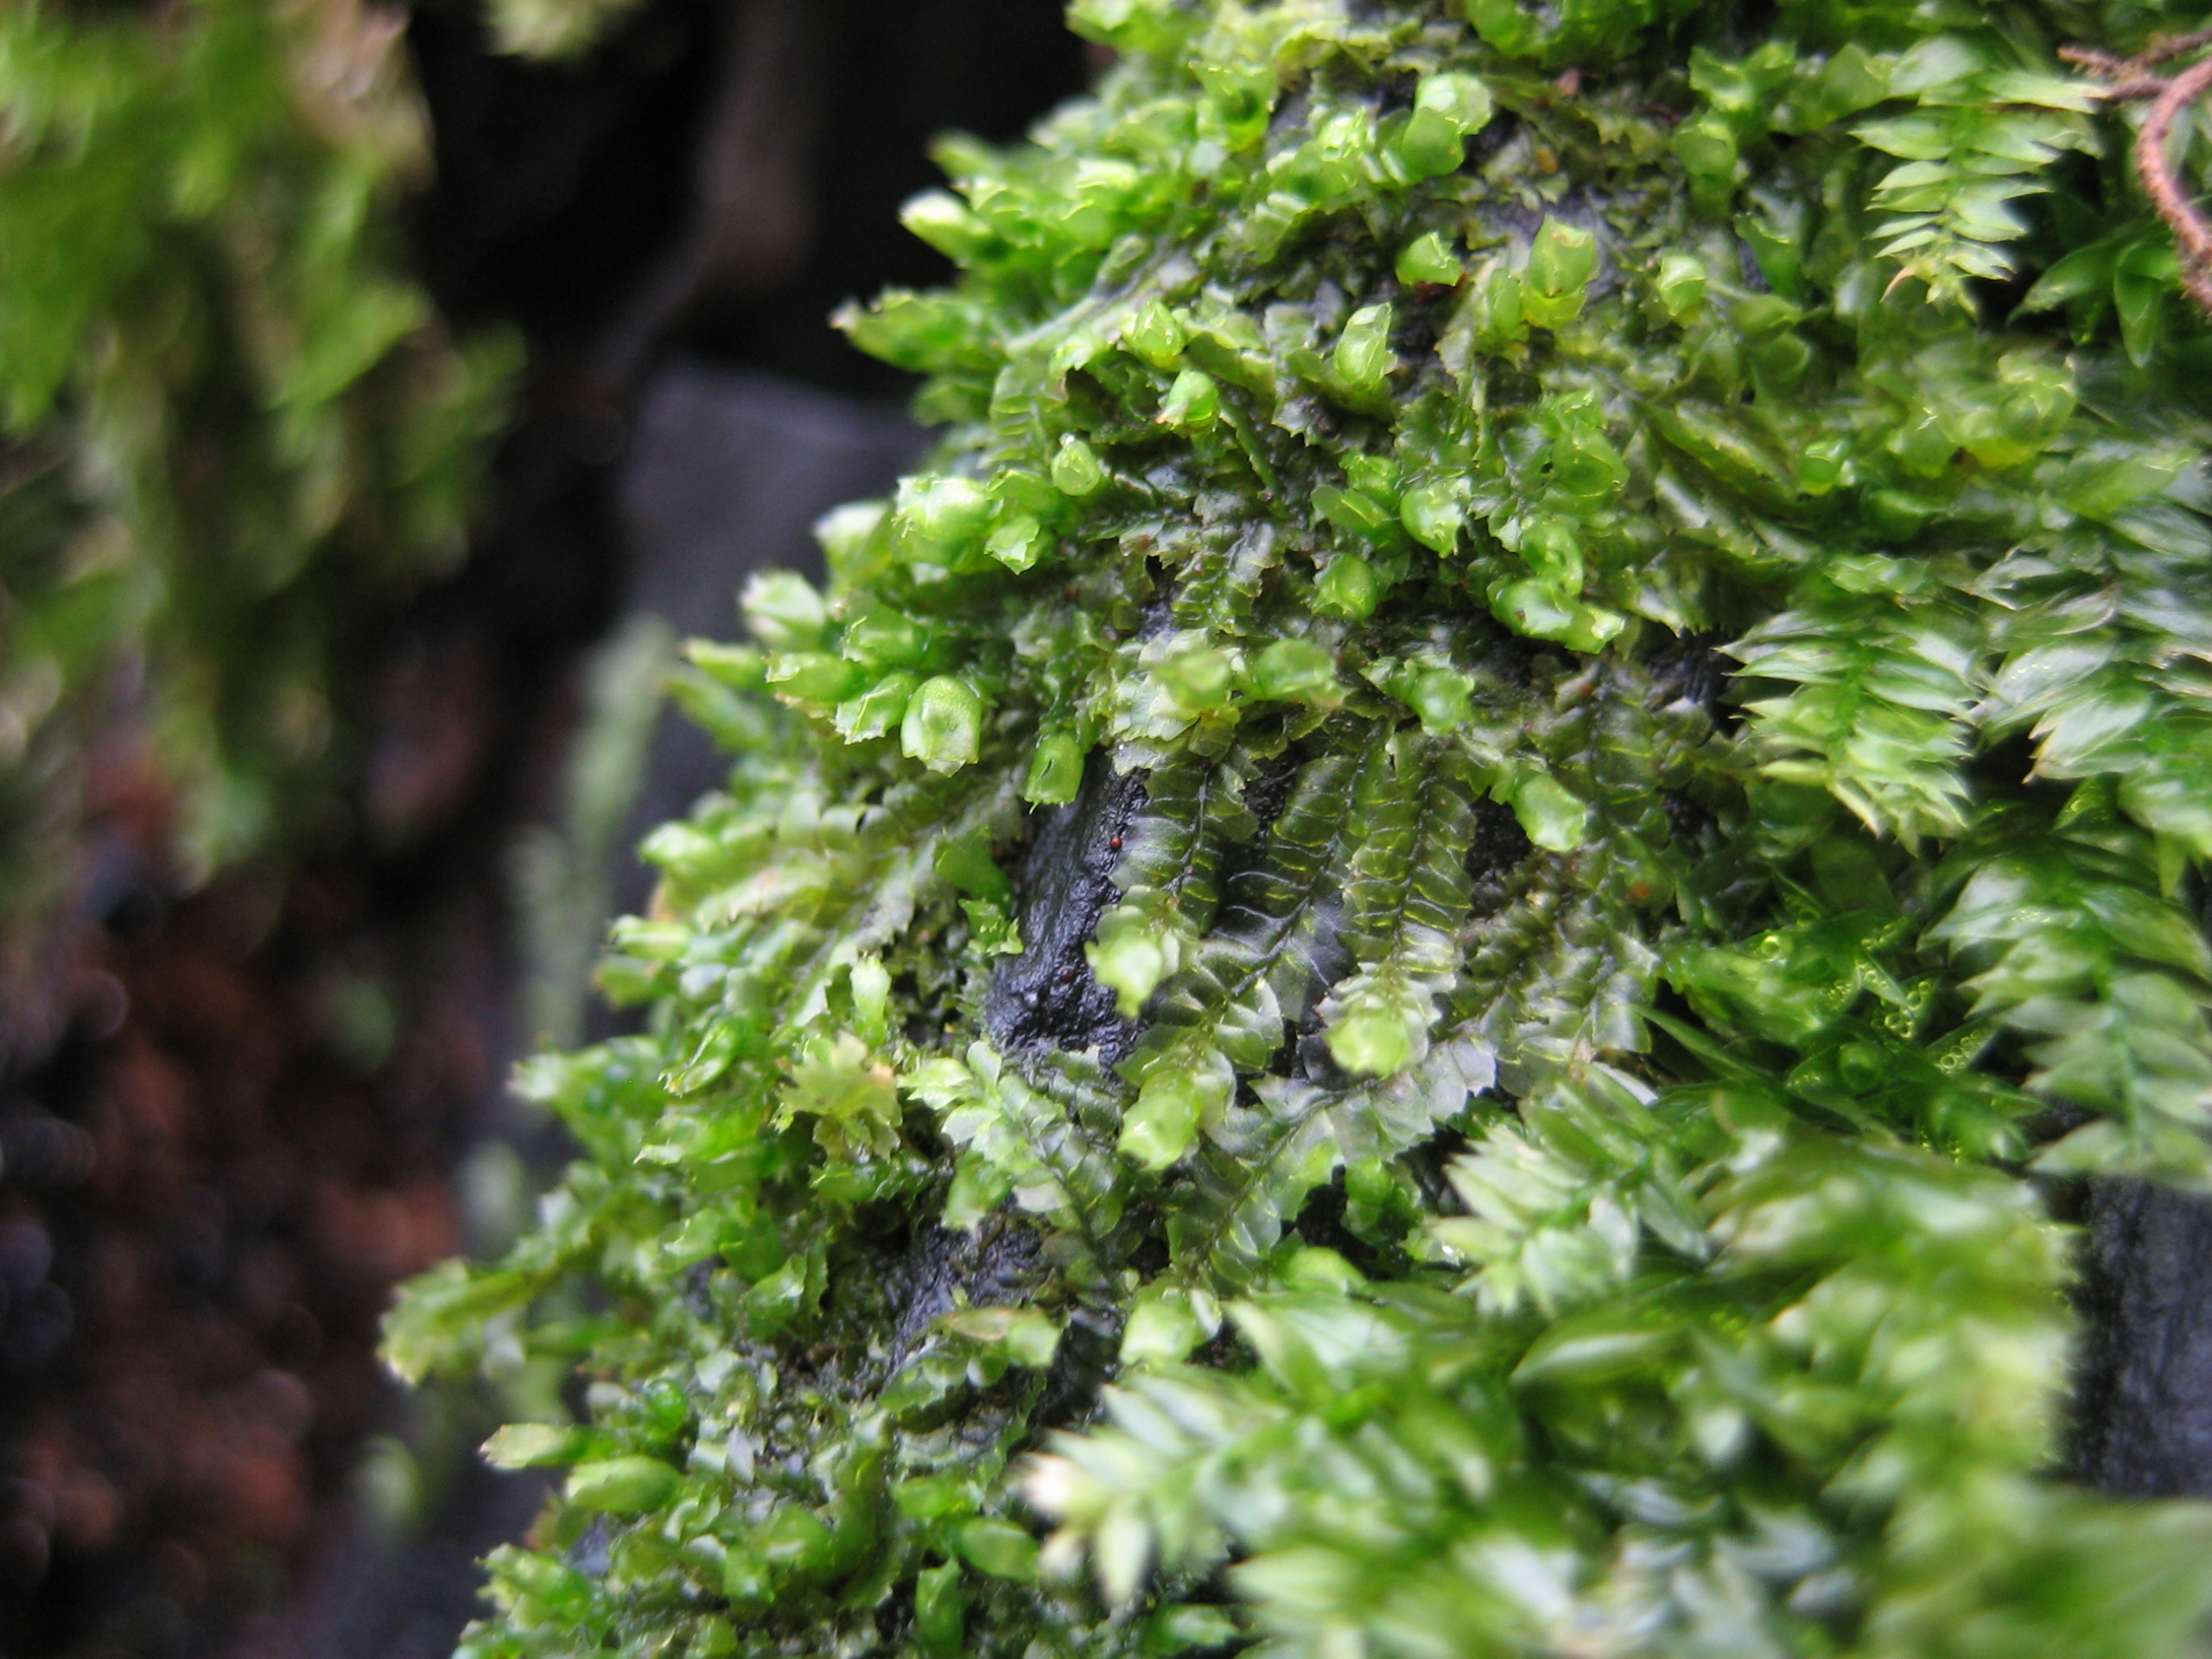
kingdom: Plantae
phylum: Marchantiophyta
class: Jungermanniopsida
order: Jungermanniales
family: Lophocoleaceae
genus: Lophocolea
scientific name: Lophocolea heterophylla
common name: Forskelligbladet kamsvøb
